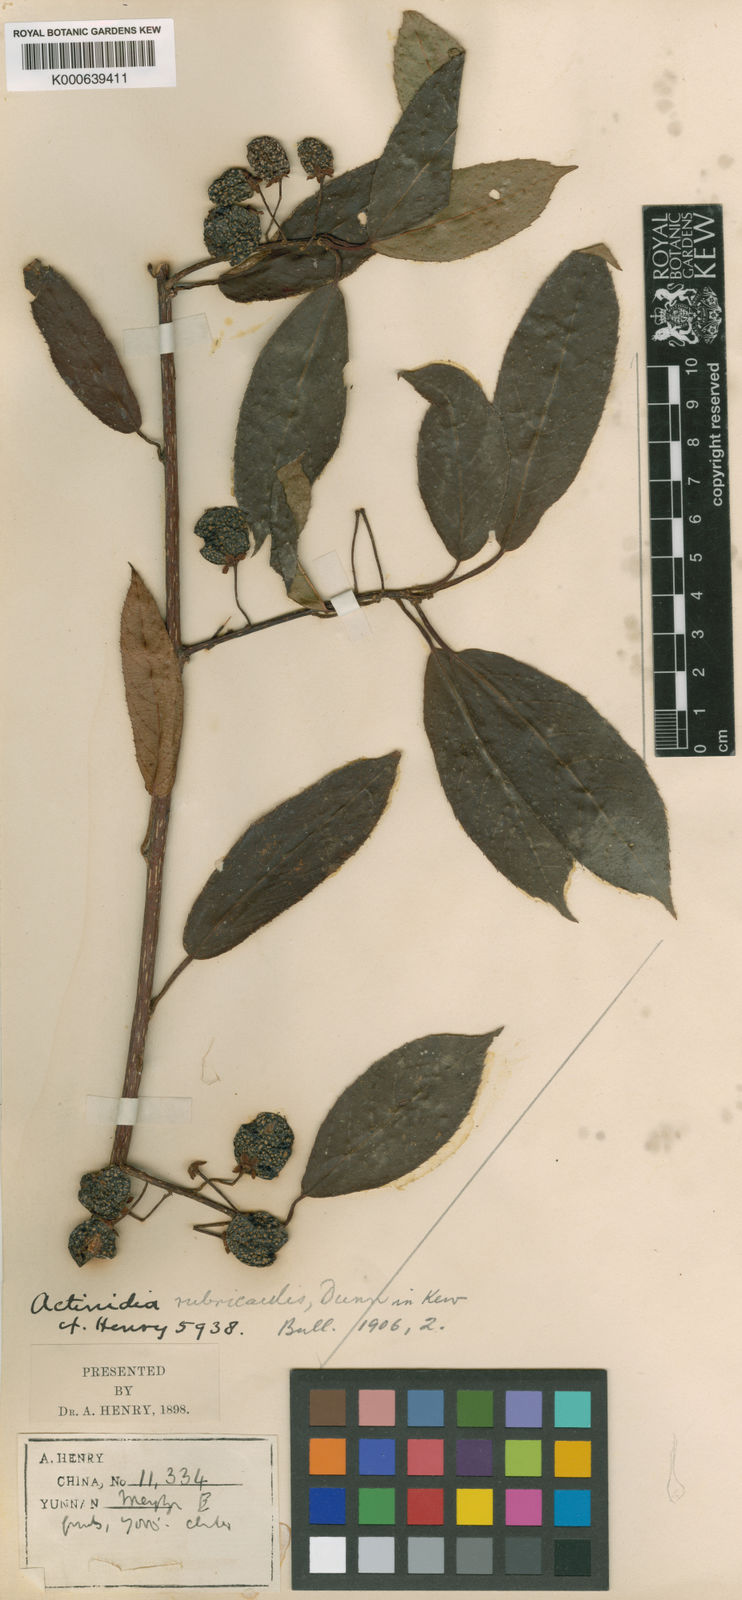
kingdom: Plantae
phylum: Tracheophyta
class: Magnoliopsida
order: Ericales
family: Actinidiaceae
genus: Actinidia
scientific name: Actinidia rubricaulis
